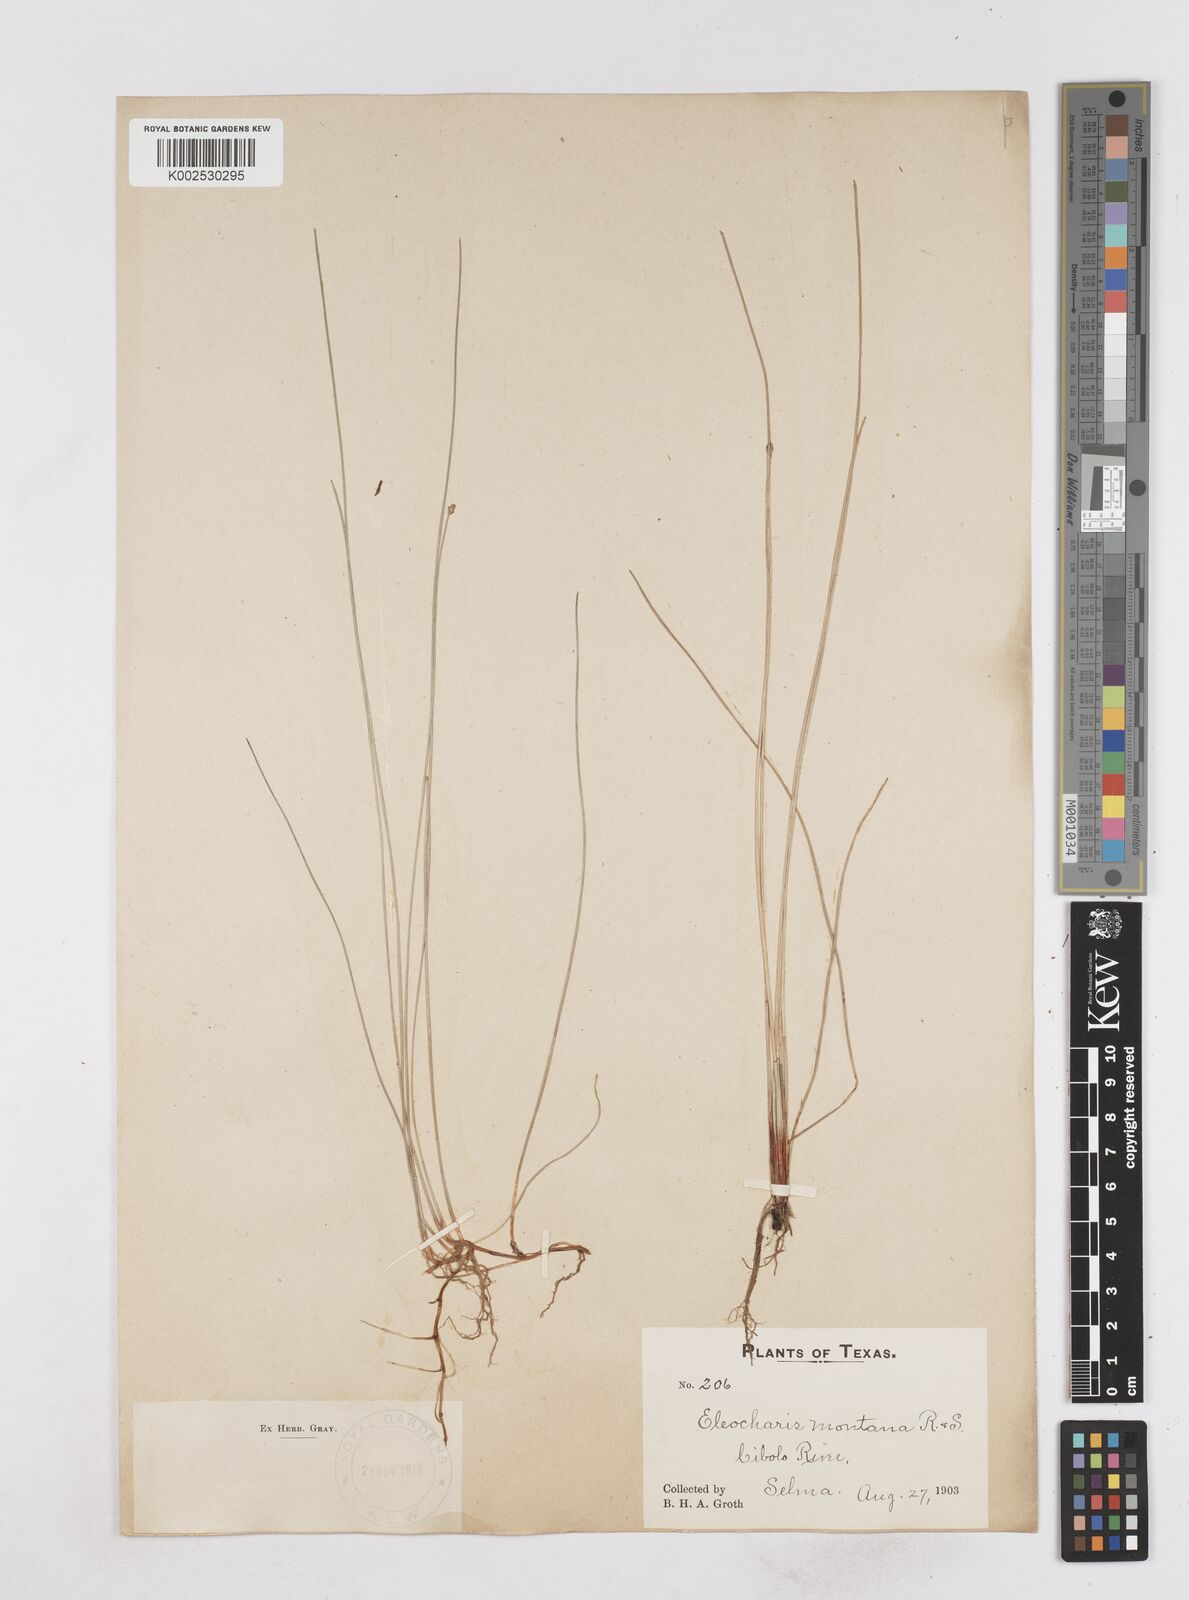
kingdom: Plantae
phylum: Tracheophyta
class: Liliopsida
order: Poales
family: Cyperaceae
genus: Eleocharis
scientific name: Eleocharis montana
